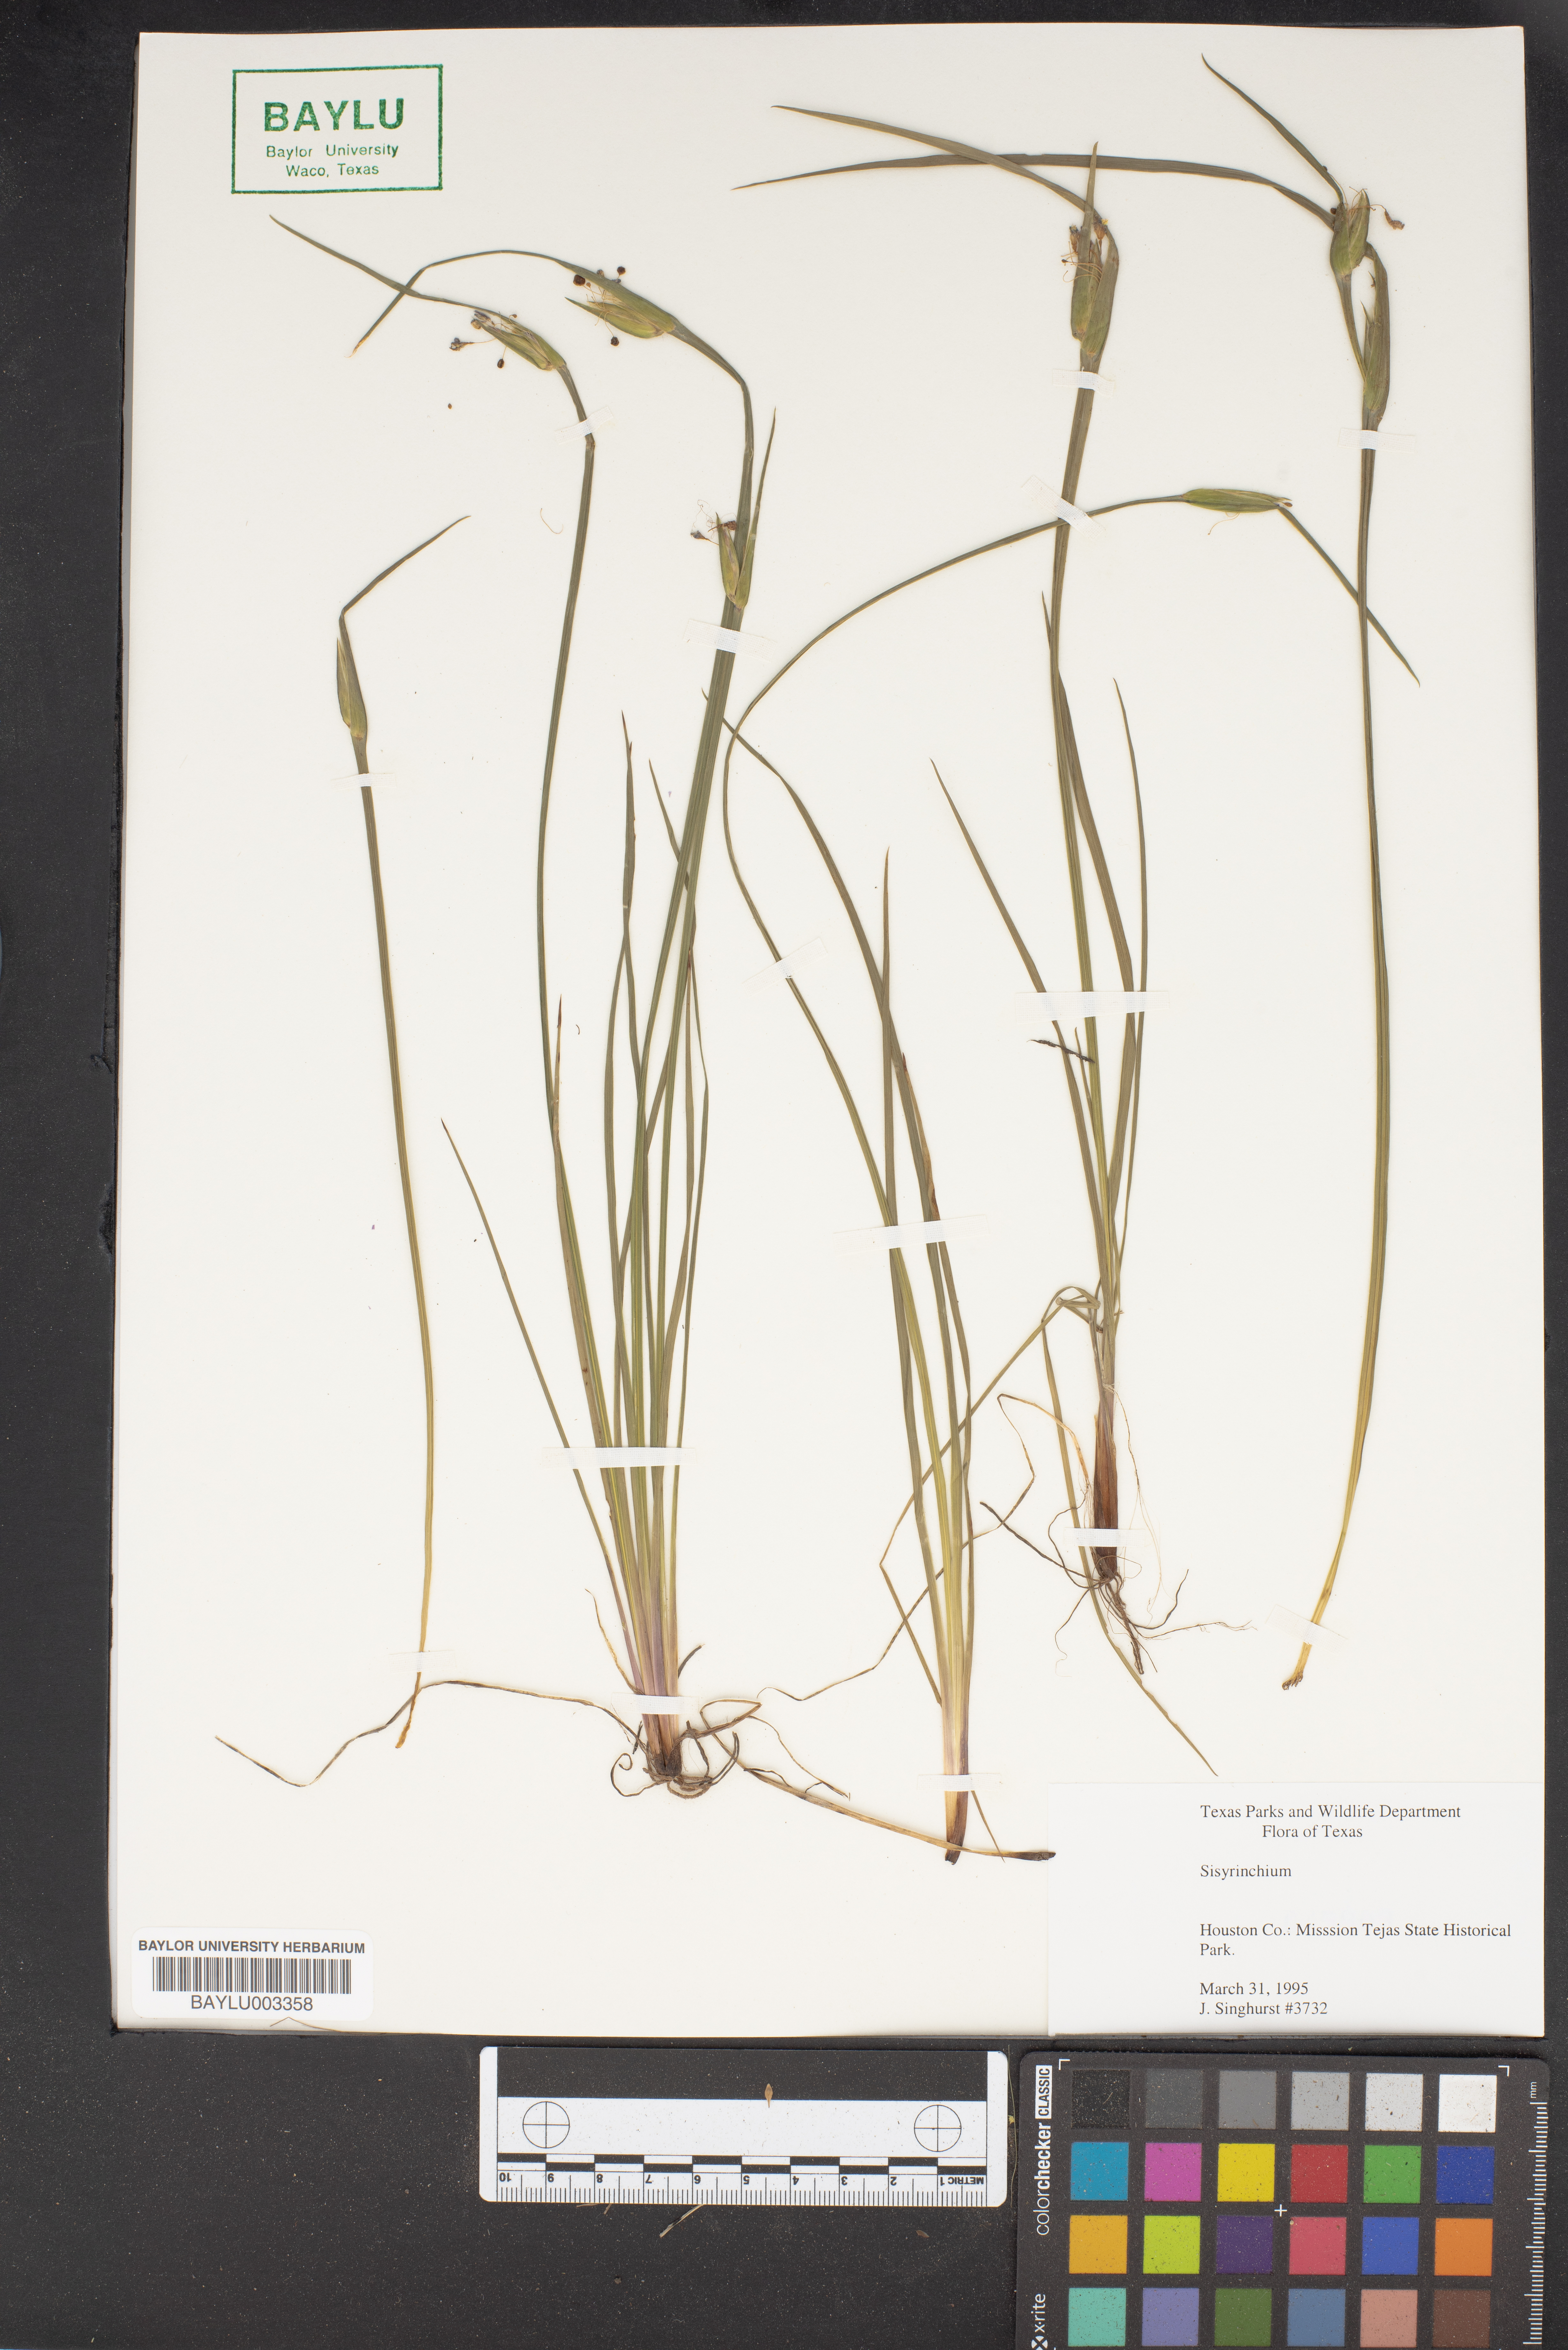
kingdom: Plantae
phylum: Tracheophyta
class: Liliopsida
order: Asparagales
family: Iridaceae
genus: Sisyrinchium
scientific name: Sisyrinchium
